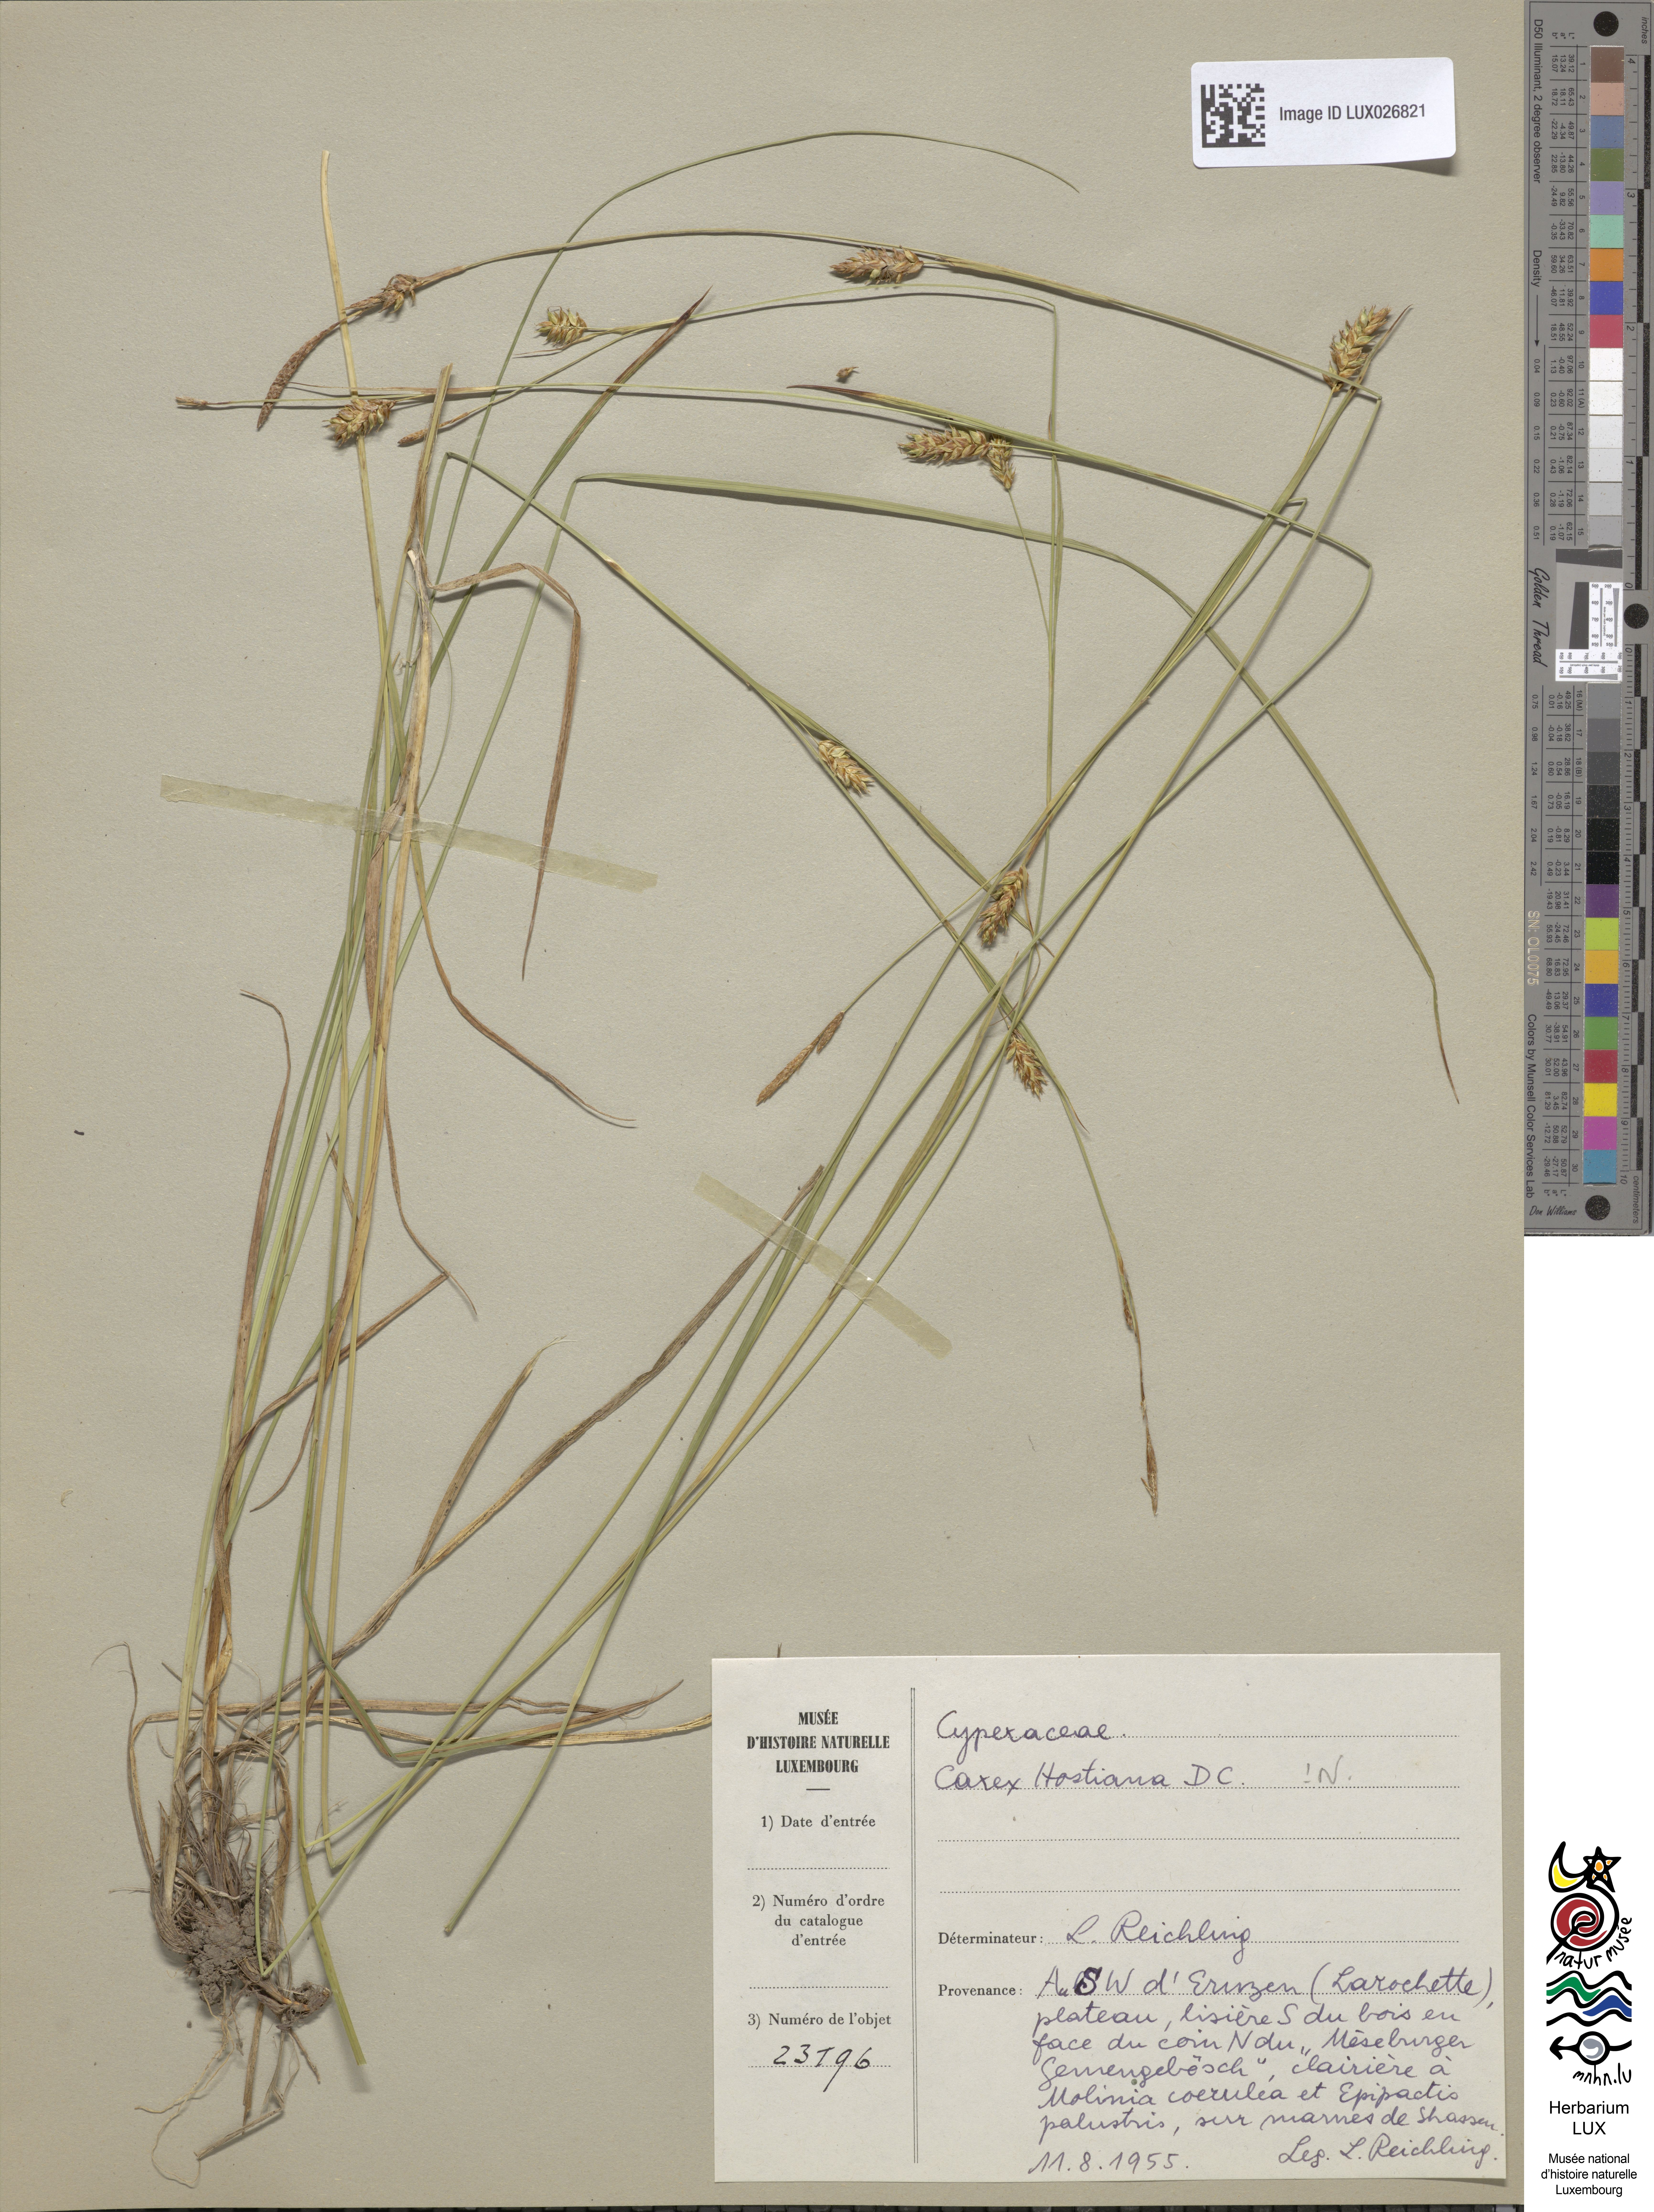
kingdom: Plantae
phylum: Tracheophyta
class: Liliopsida
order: Poales
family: Cyperaceae
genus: Carex
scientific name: Carex hostiana
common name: Tawny sedge
